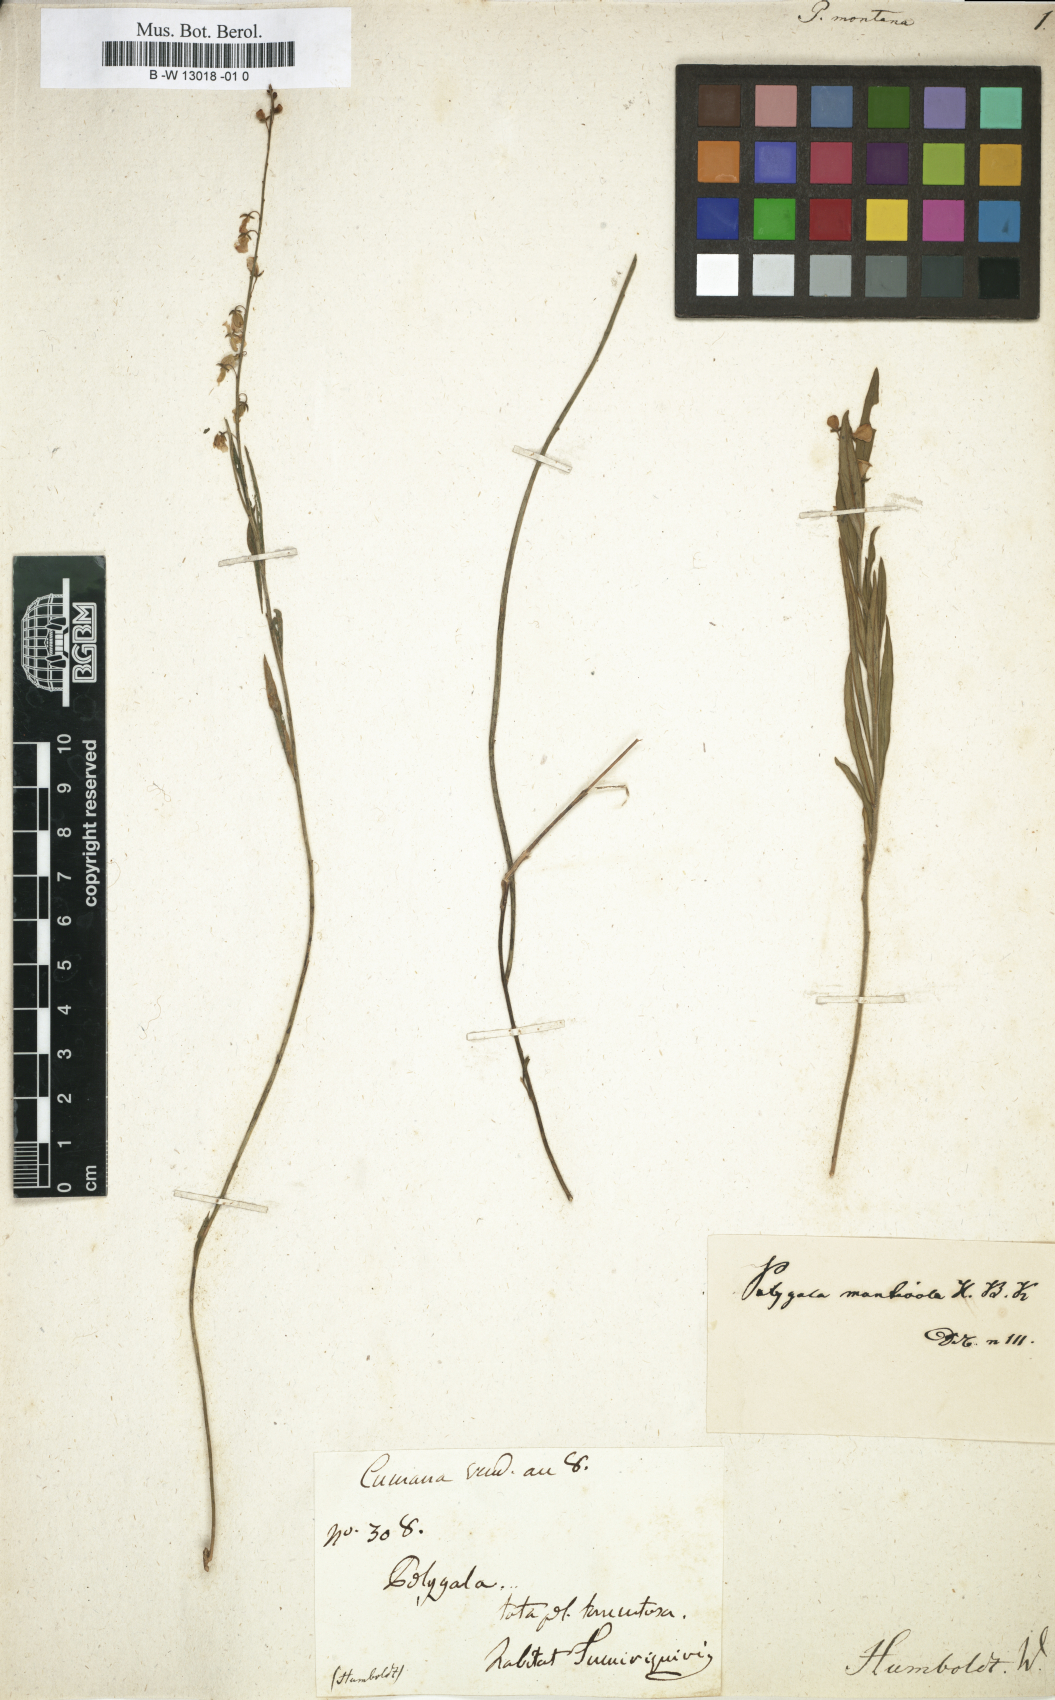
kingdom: Plantae
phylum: Tracheophyta
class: Magnoliopsida
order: Fabales
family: Polygalaceae
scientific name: Polygalaceae
